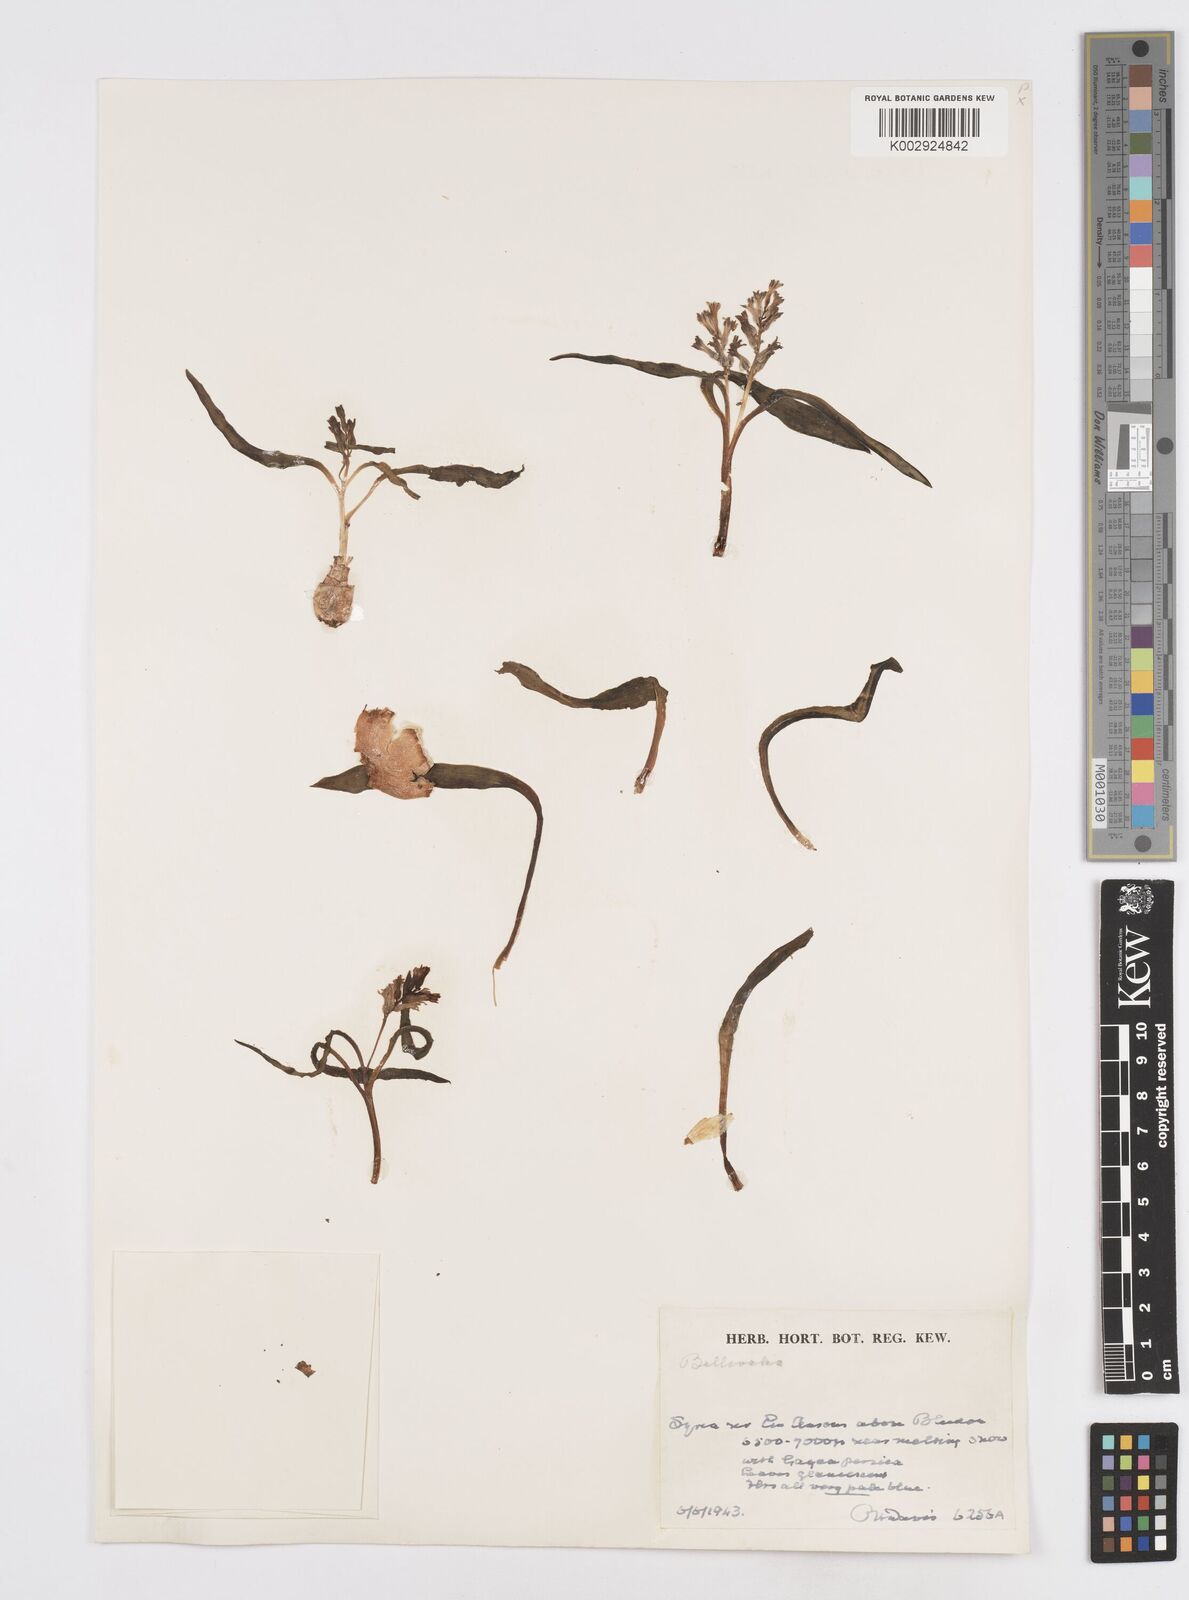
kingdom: Plantae
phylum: Tracheophyta
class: Liliopsida
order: Asparagales
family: Asparagaceae
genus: Bellevalia
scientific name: Bellevalia
